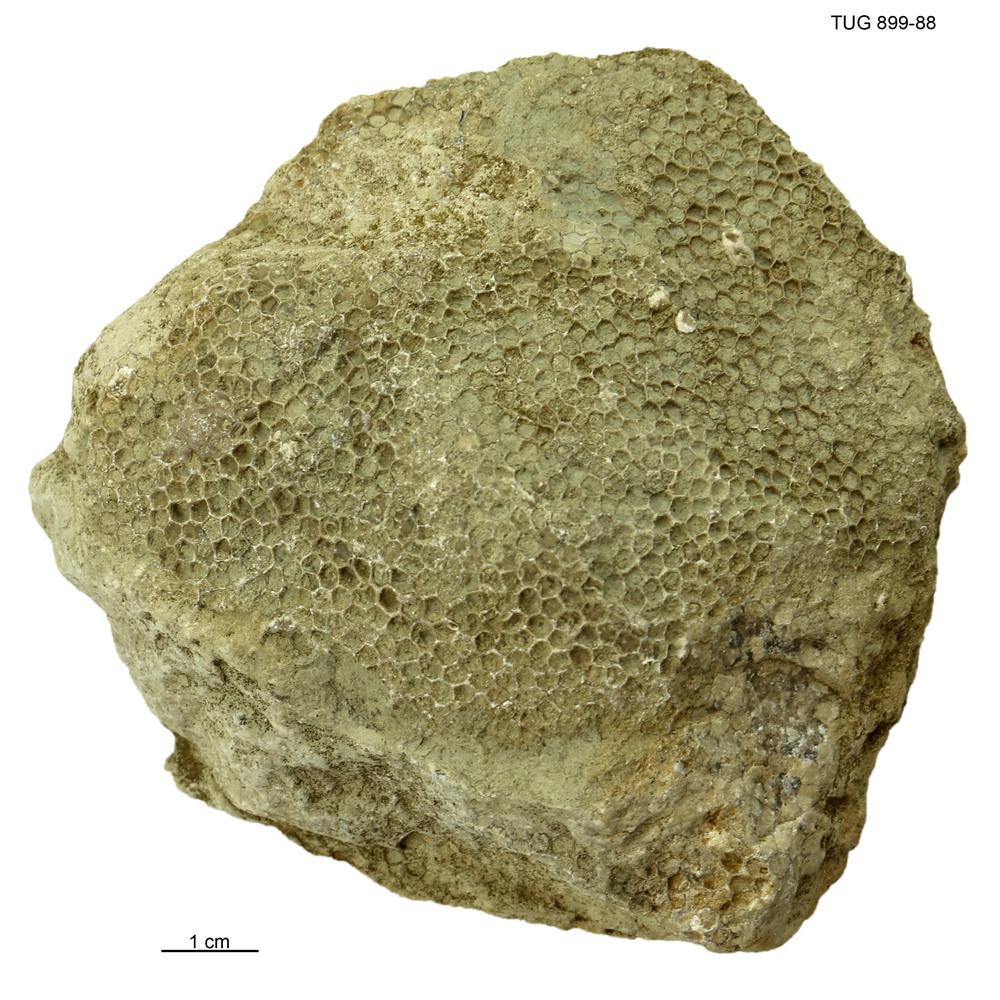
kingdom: Animalia
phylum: Cnidaria
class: Anthozoa
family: Favositidae
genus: Favosites
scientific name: Favosites
